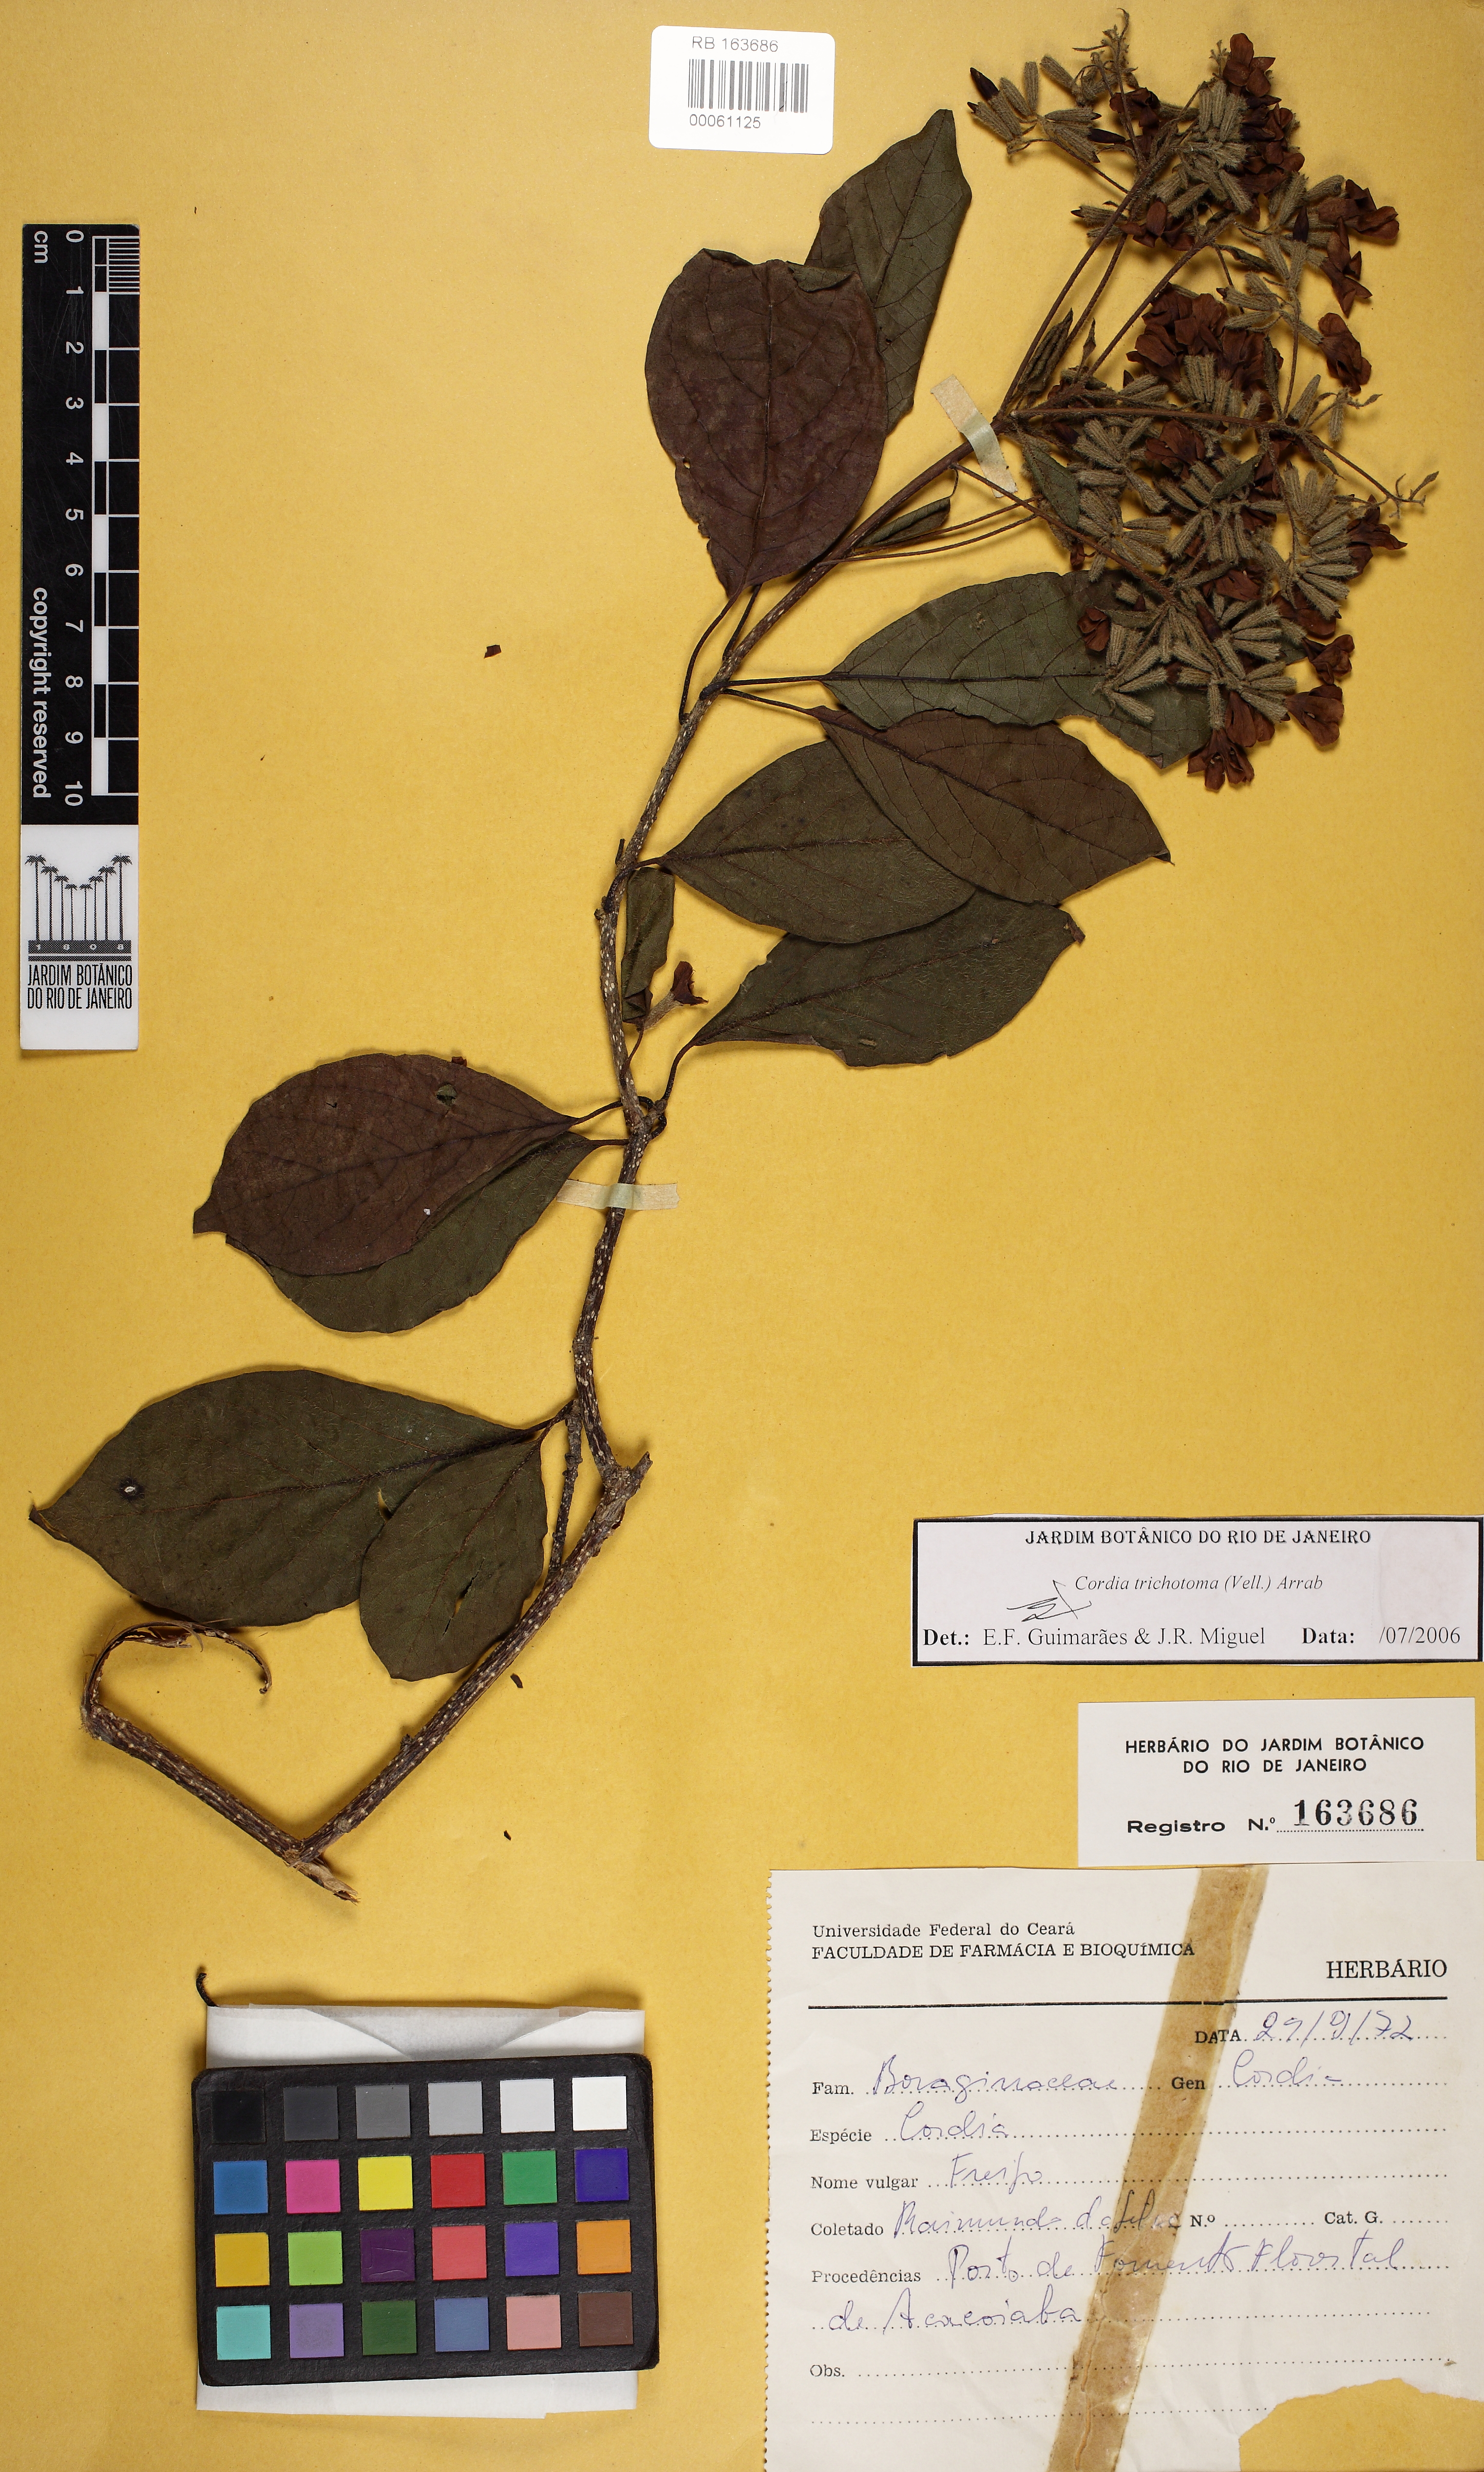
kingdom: Plantae
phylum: Tracheophyta
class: Magnoliopsida
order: Boraginales
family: Cordiaceae
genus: Varronia
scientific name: Varronia curassavica
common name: Black sage
